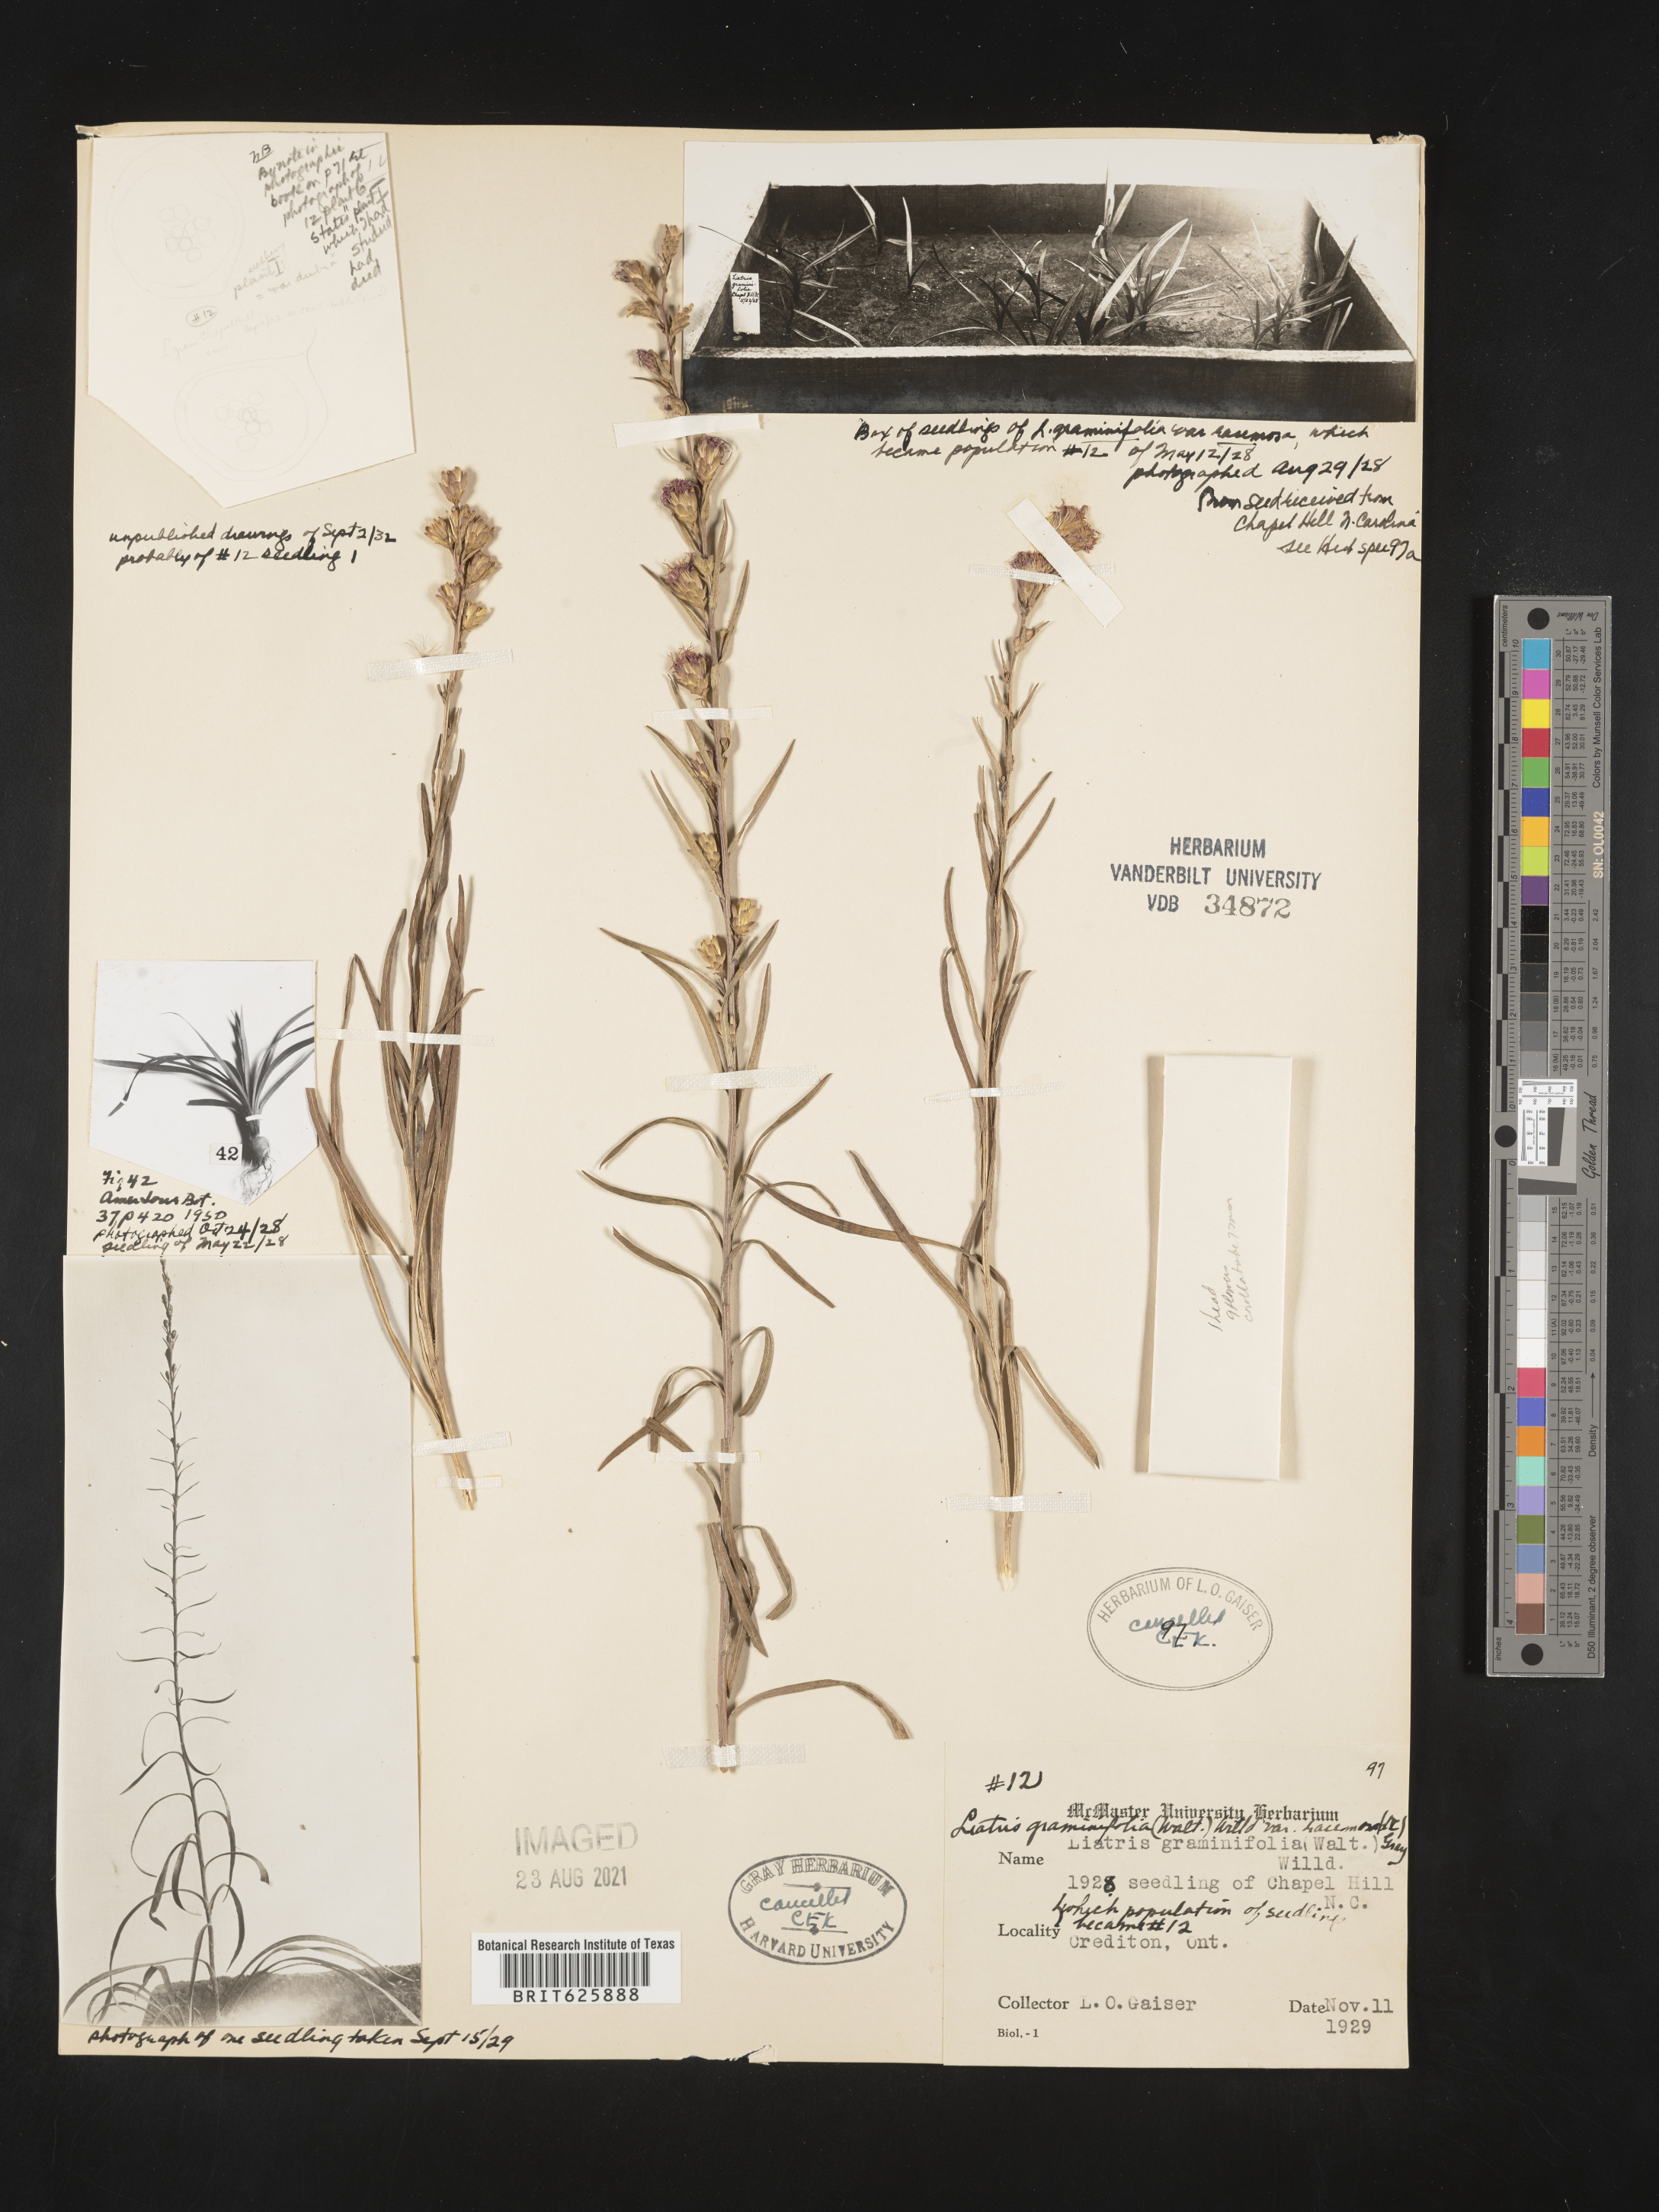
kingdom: Plantae
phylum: Tracheophyta
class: Magnoliopsida
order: Asterales
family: Asteraceae
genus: Liatris
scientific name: Liatris virgata
